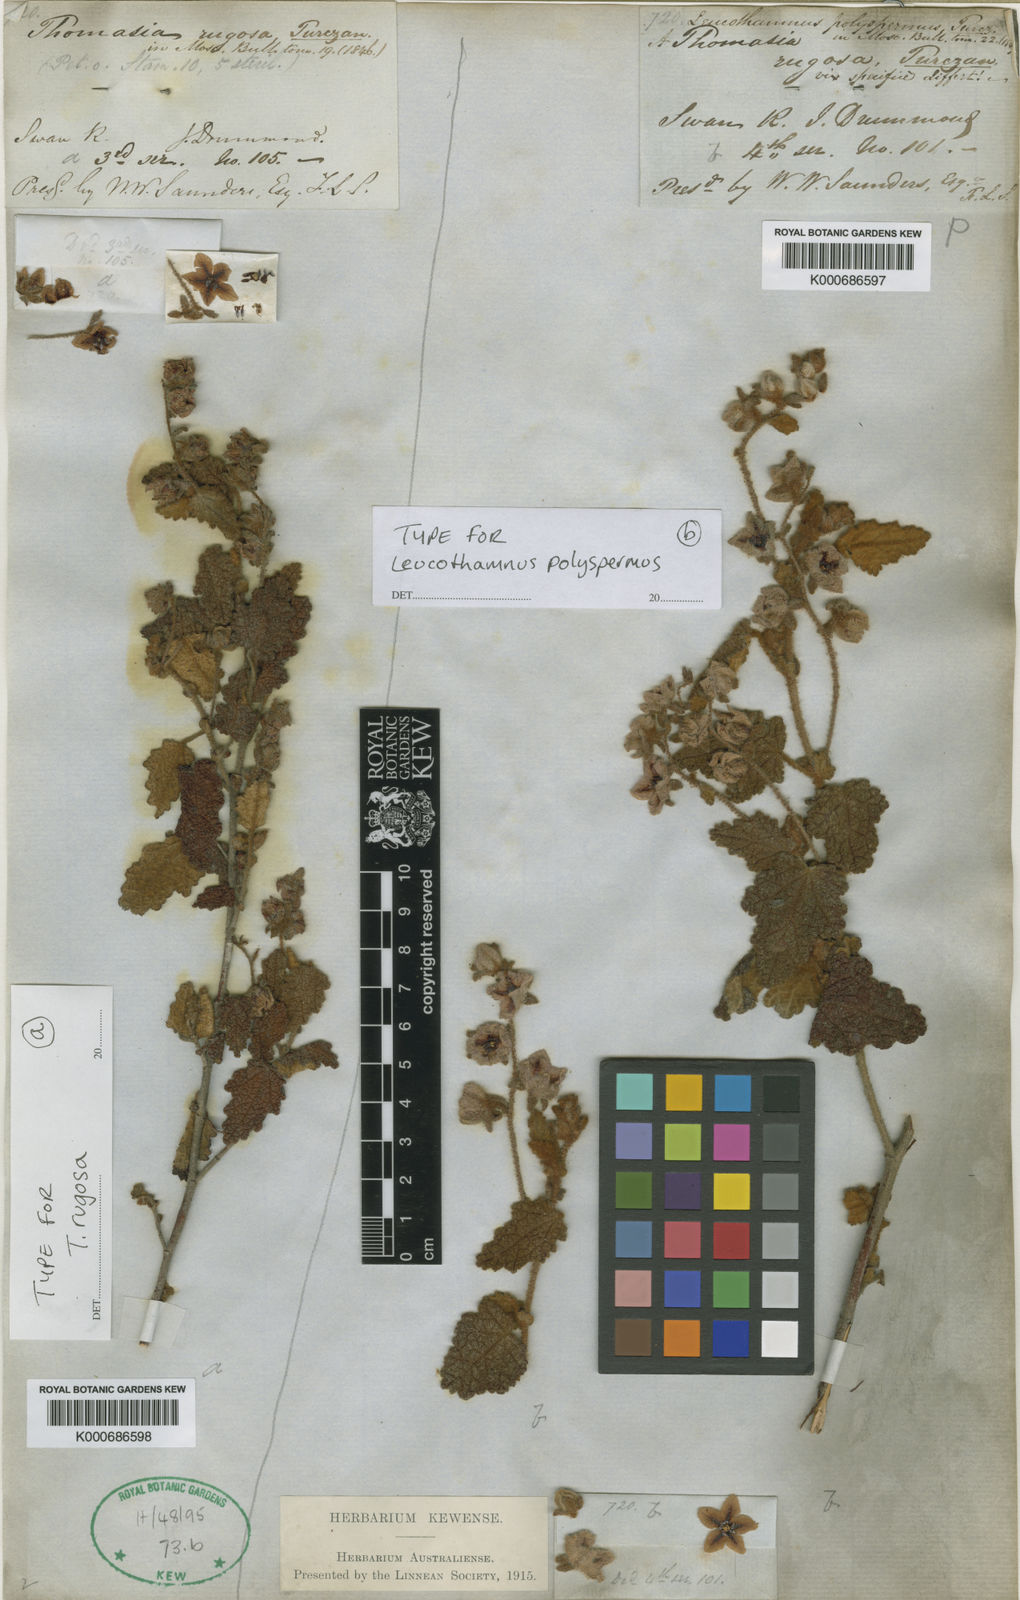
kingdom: Plantae
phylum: Tracheophyta
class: Magnoliopsida
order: Malvales
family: Malvaceae
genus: Thomasia
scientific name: Thomasia rugosa
